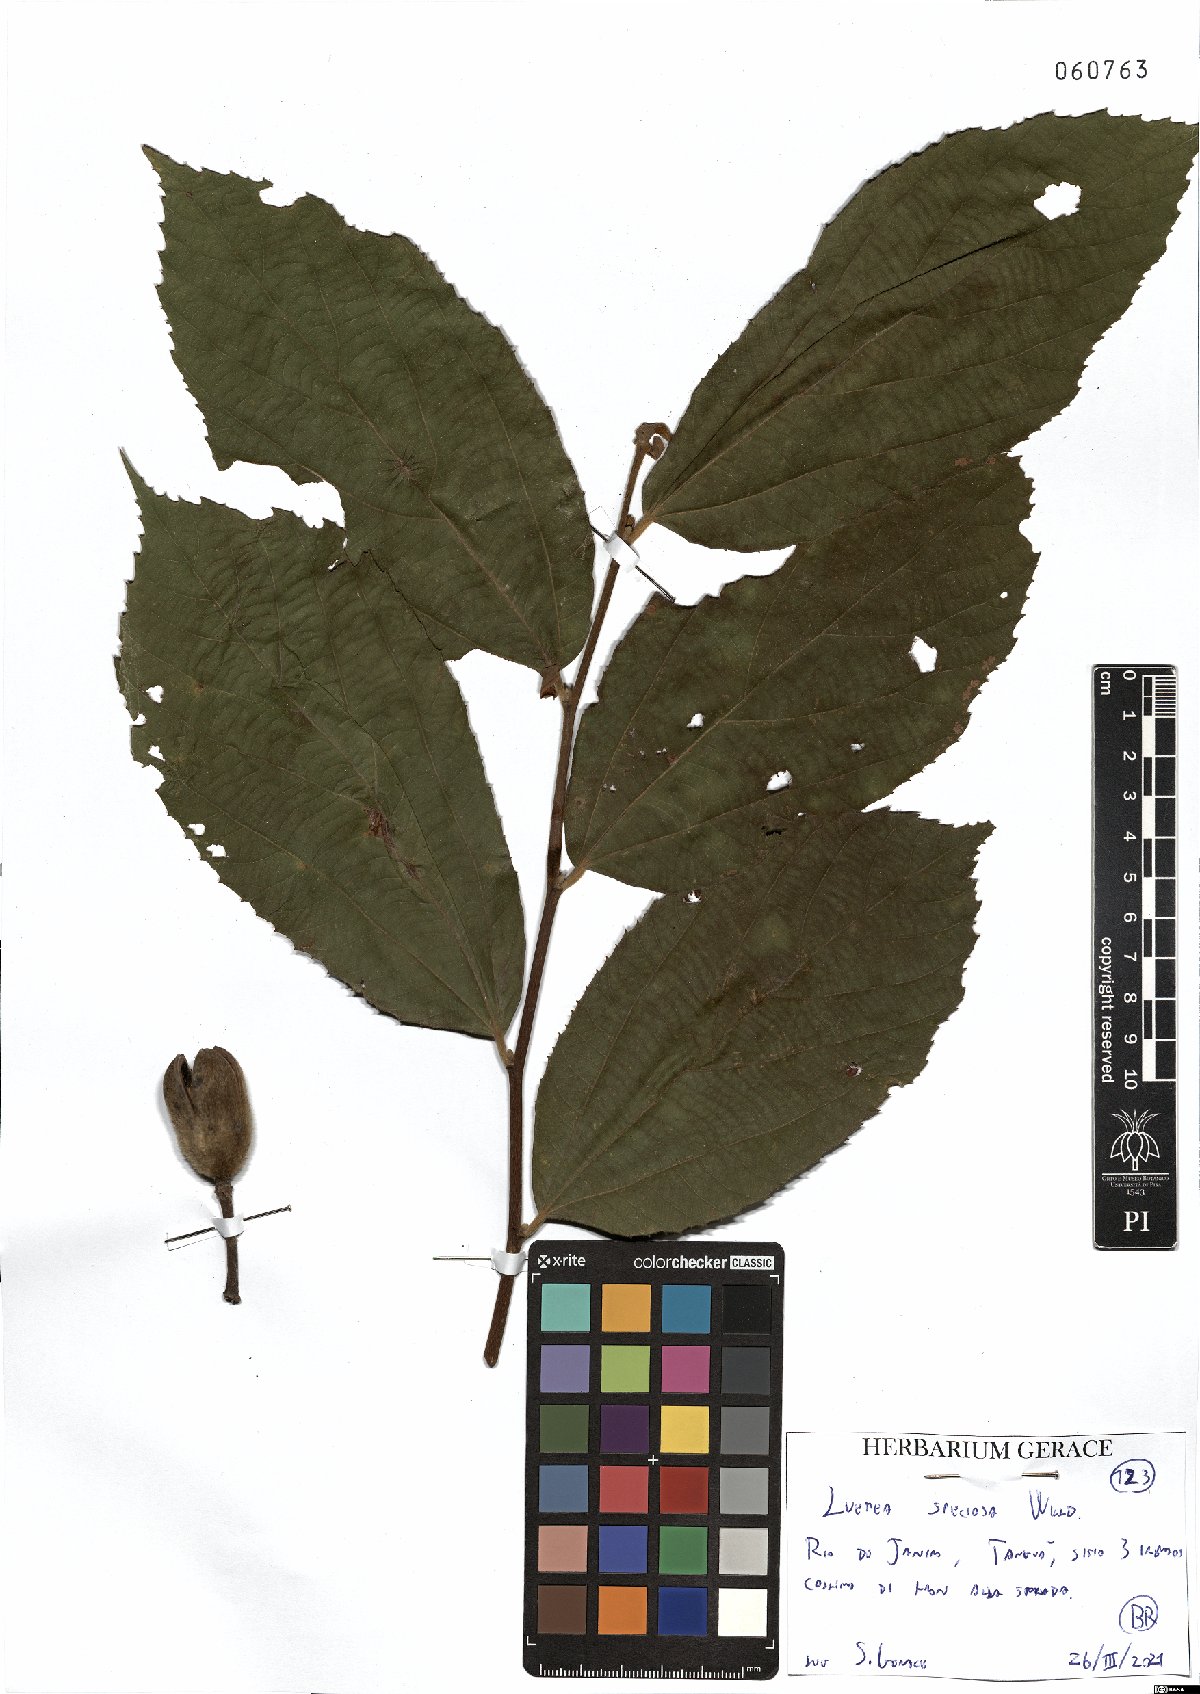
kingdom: Plantae
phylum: Tracheophyta
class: Magnoliopsida
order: Malvales
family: Malvaceae
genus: Luehea
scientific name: Luehea speciosa
